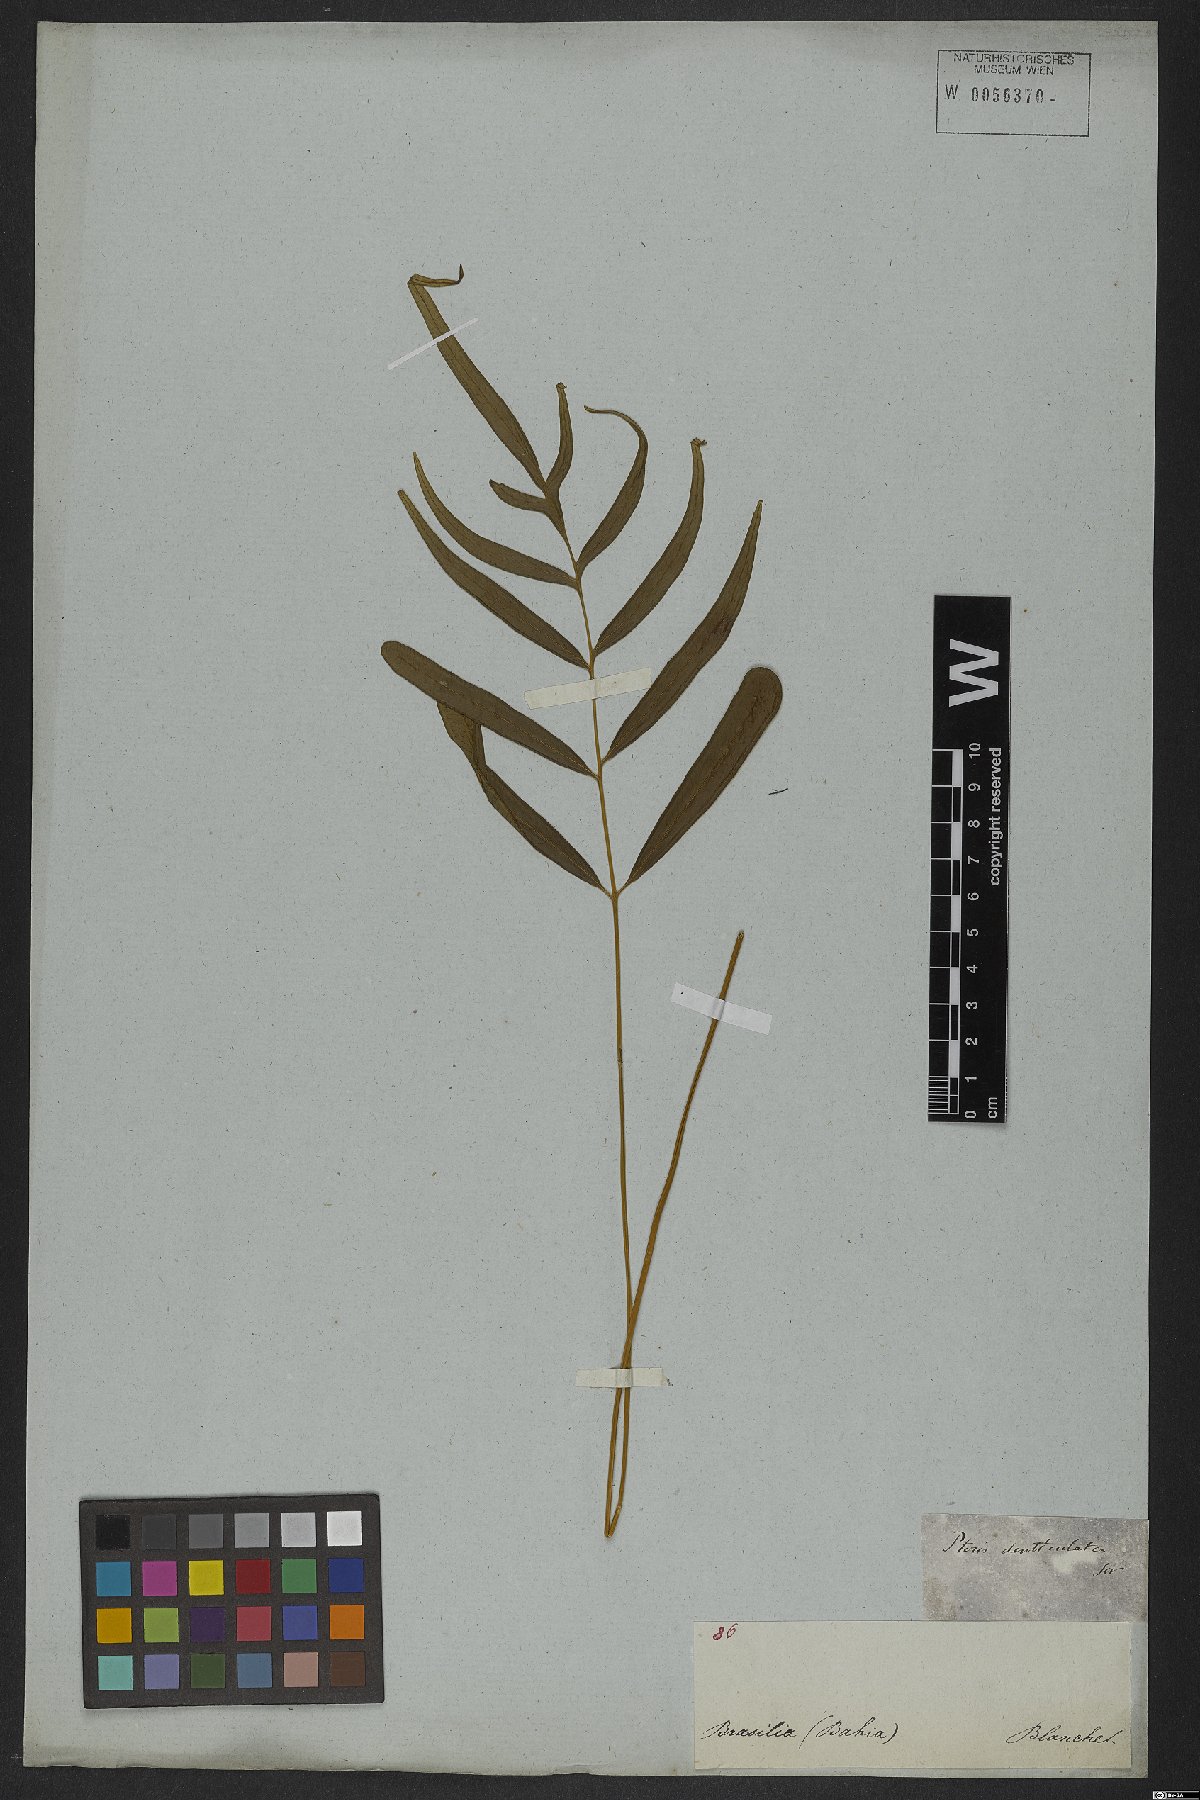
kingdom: Plantae
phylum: Tracheophyta
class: Polypodiopsida
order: Polypodiales
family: Pteridaceae
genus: Pteris
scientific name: Pteris denticulata
